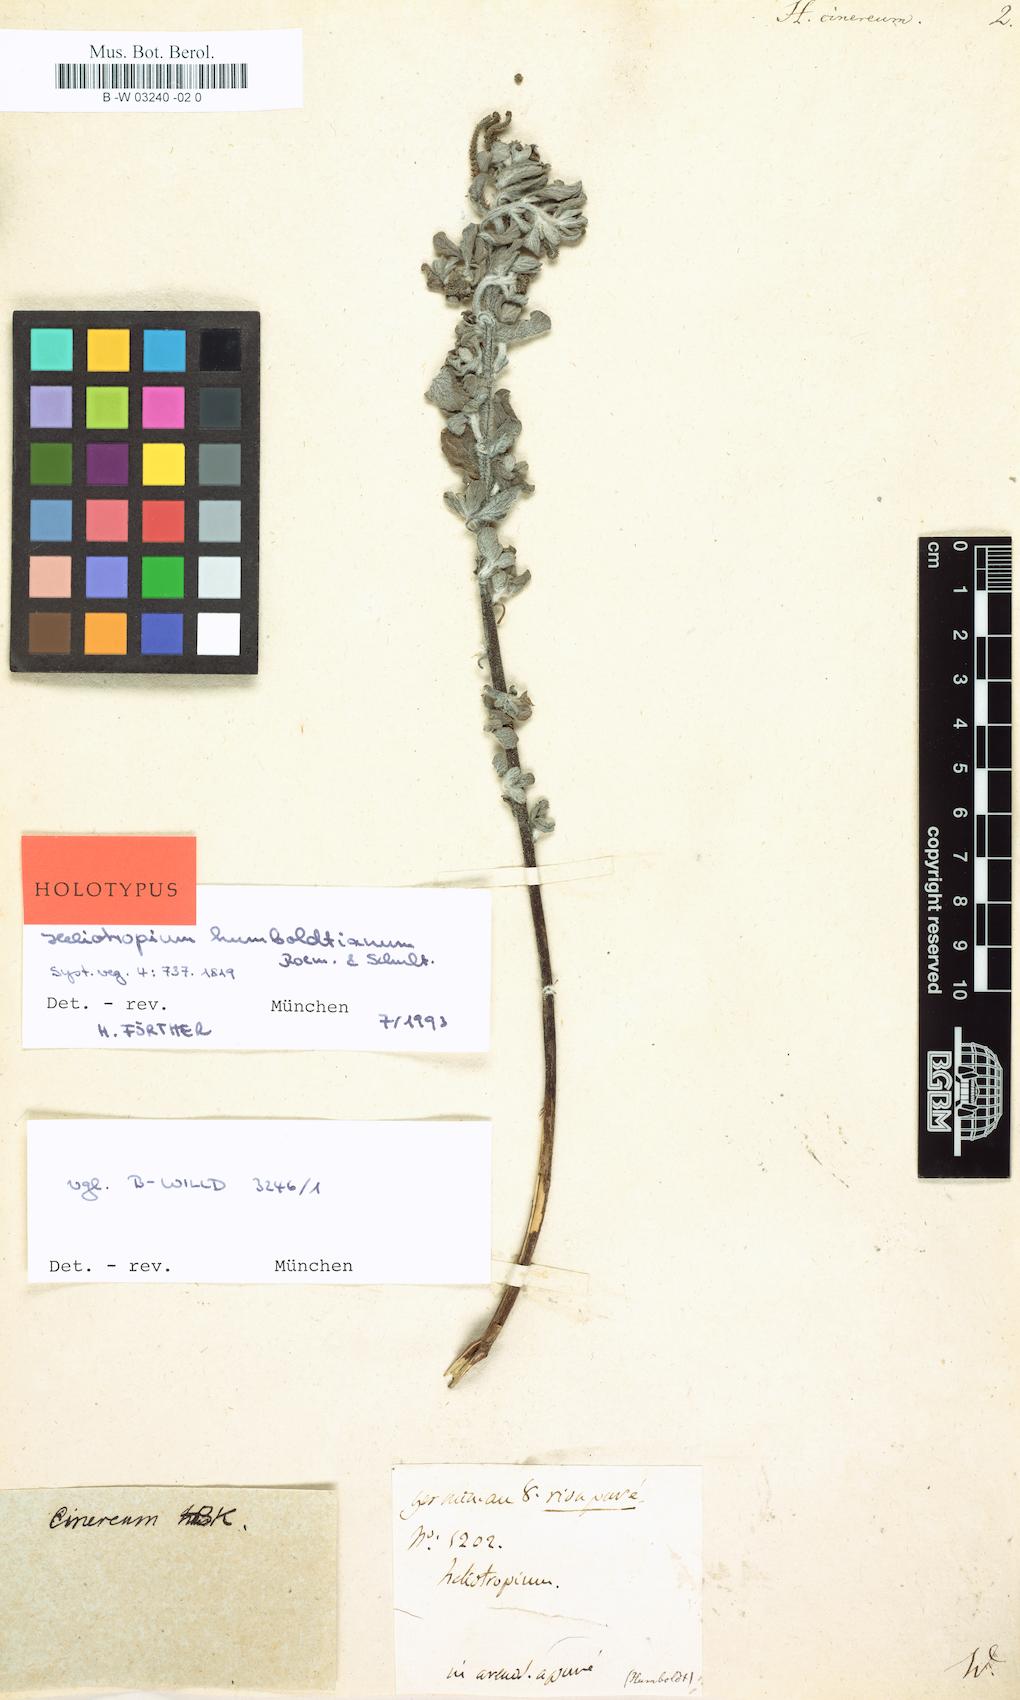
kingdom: Plantae
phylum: Tracheophyta
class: Magnoliopsida
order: Boraginales
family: Heliotropiaceae
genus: Euploca
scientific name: Euploca
